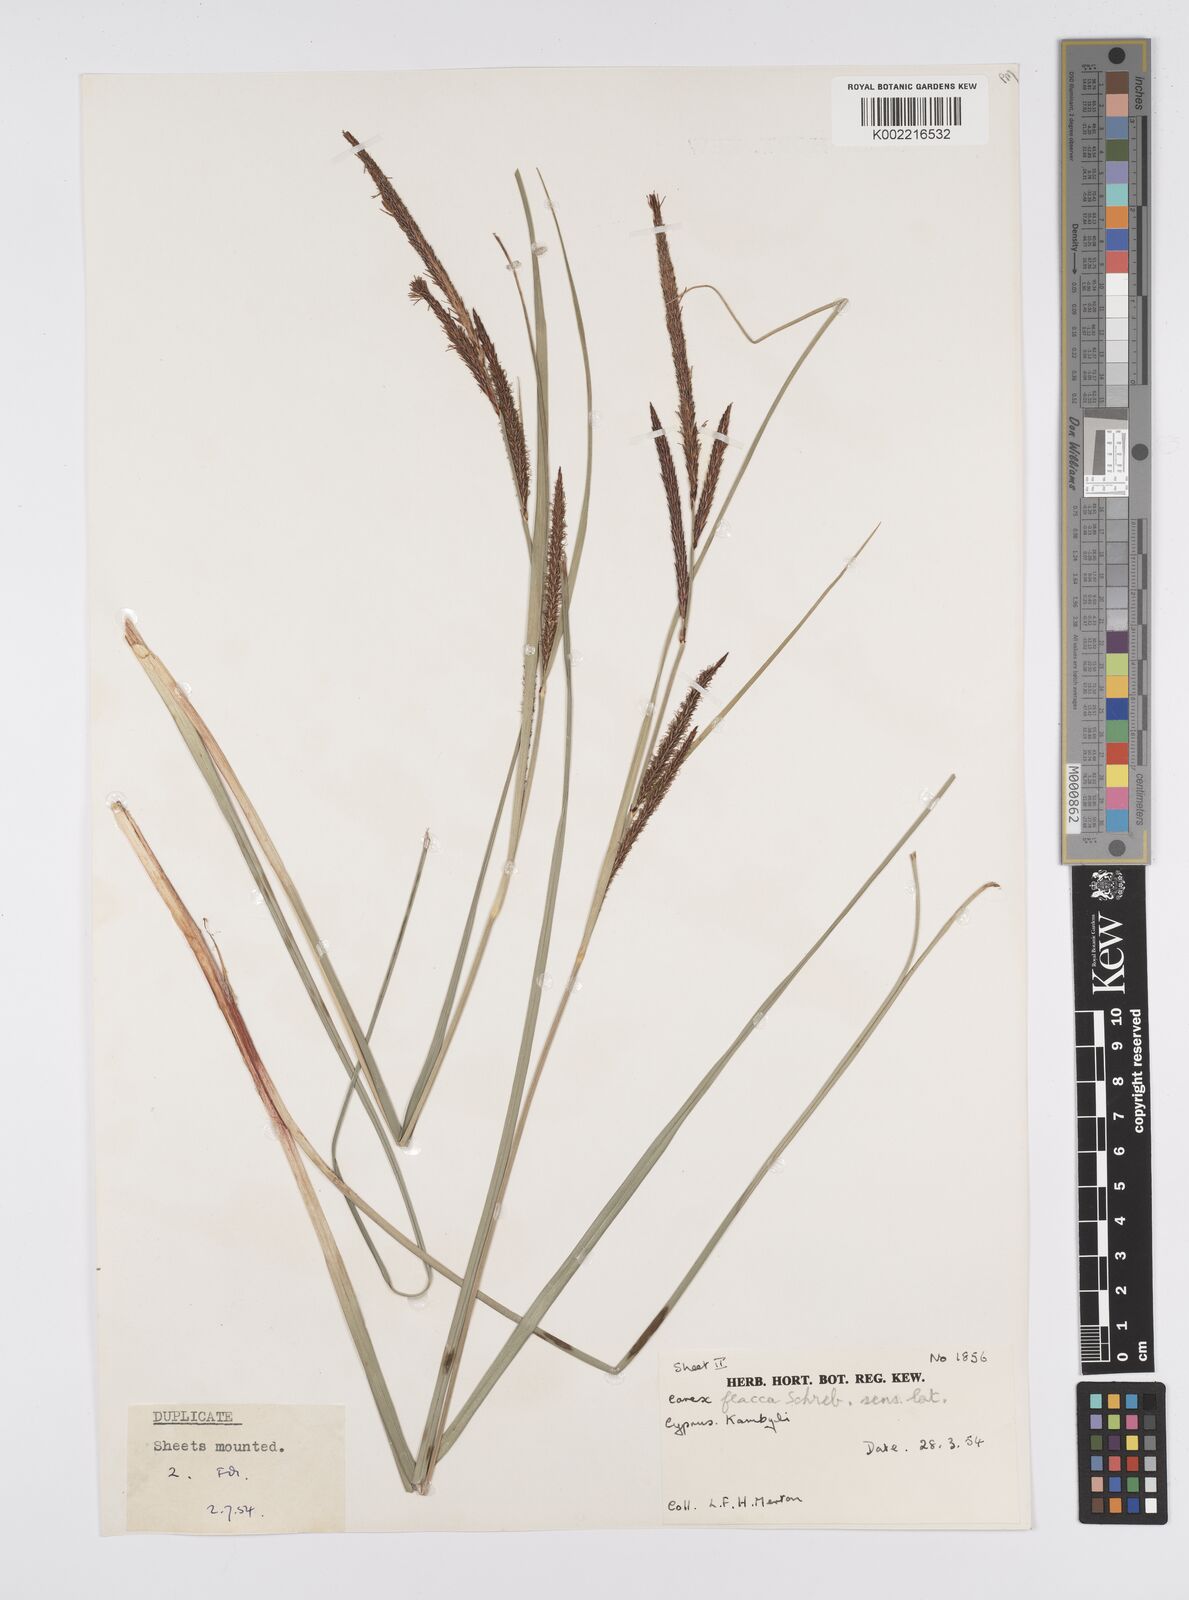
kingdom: Plantae
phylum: Tracheophyta
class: Liliopsida
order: Poales
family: Cyperaceae
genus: Carex
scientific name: Carex flacca
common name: Glaucous sedge
